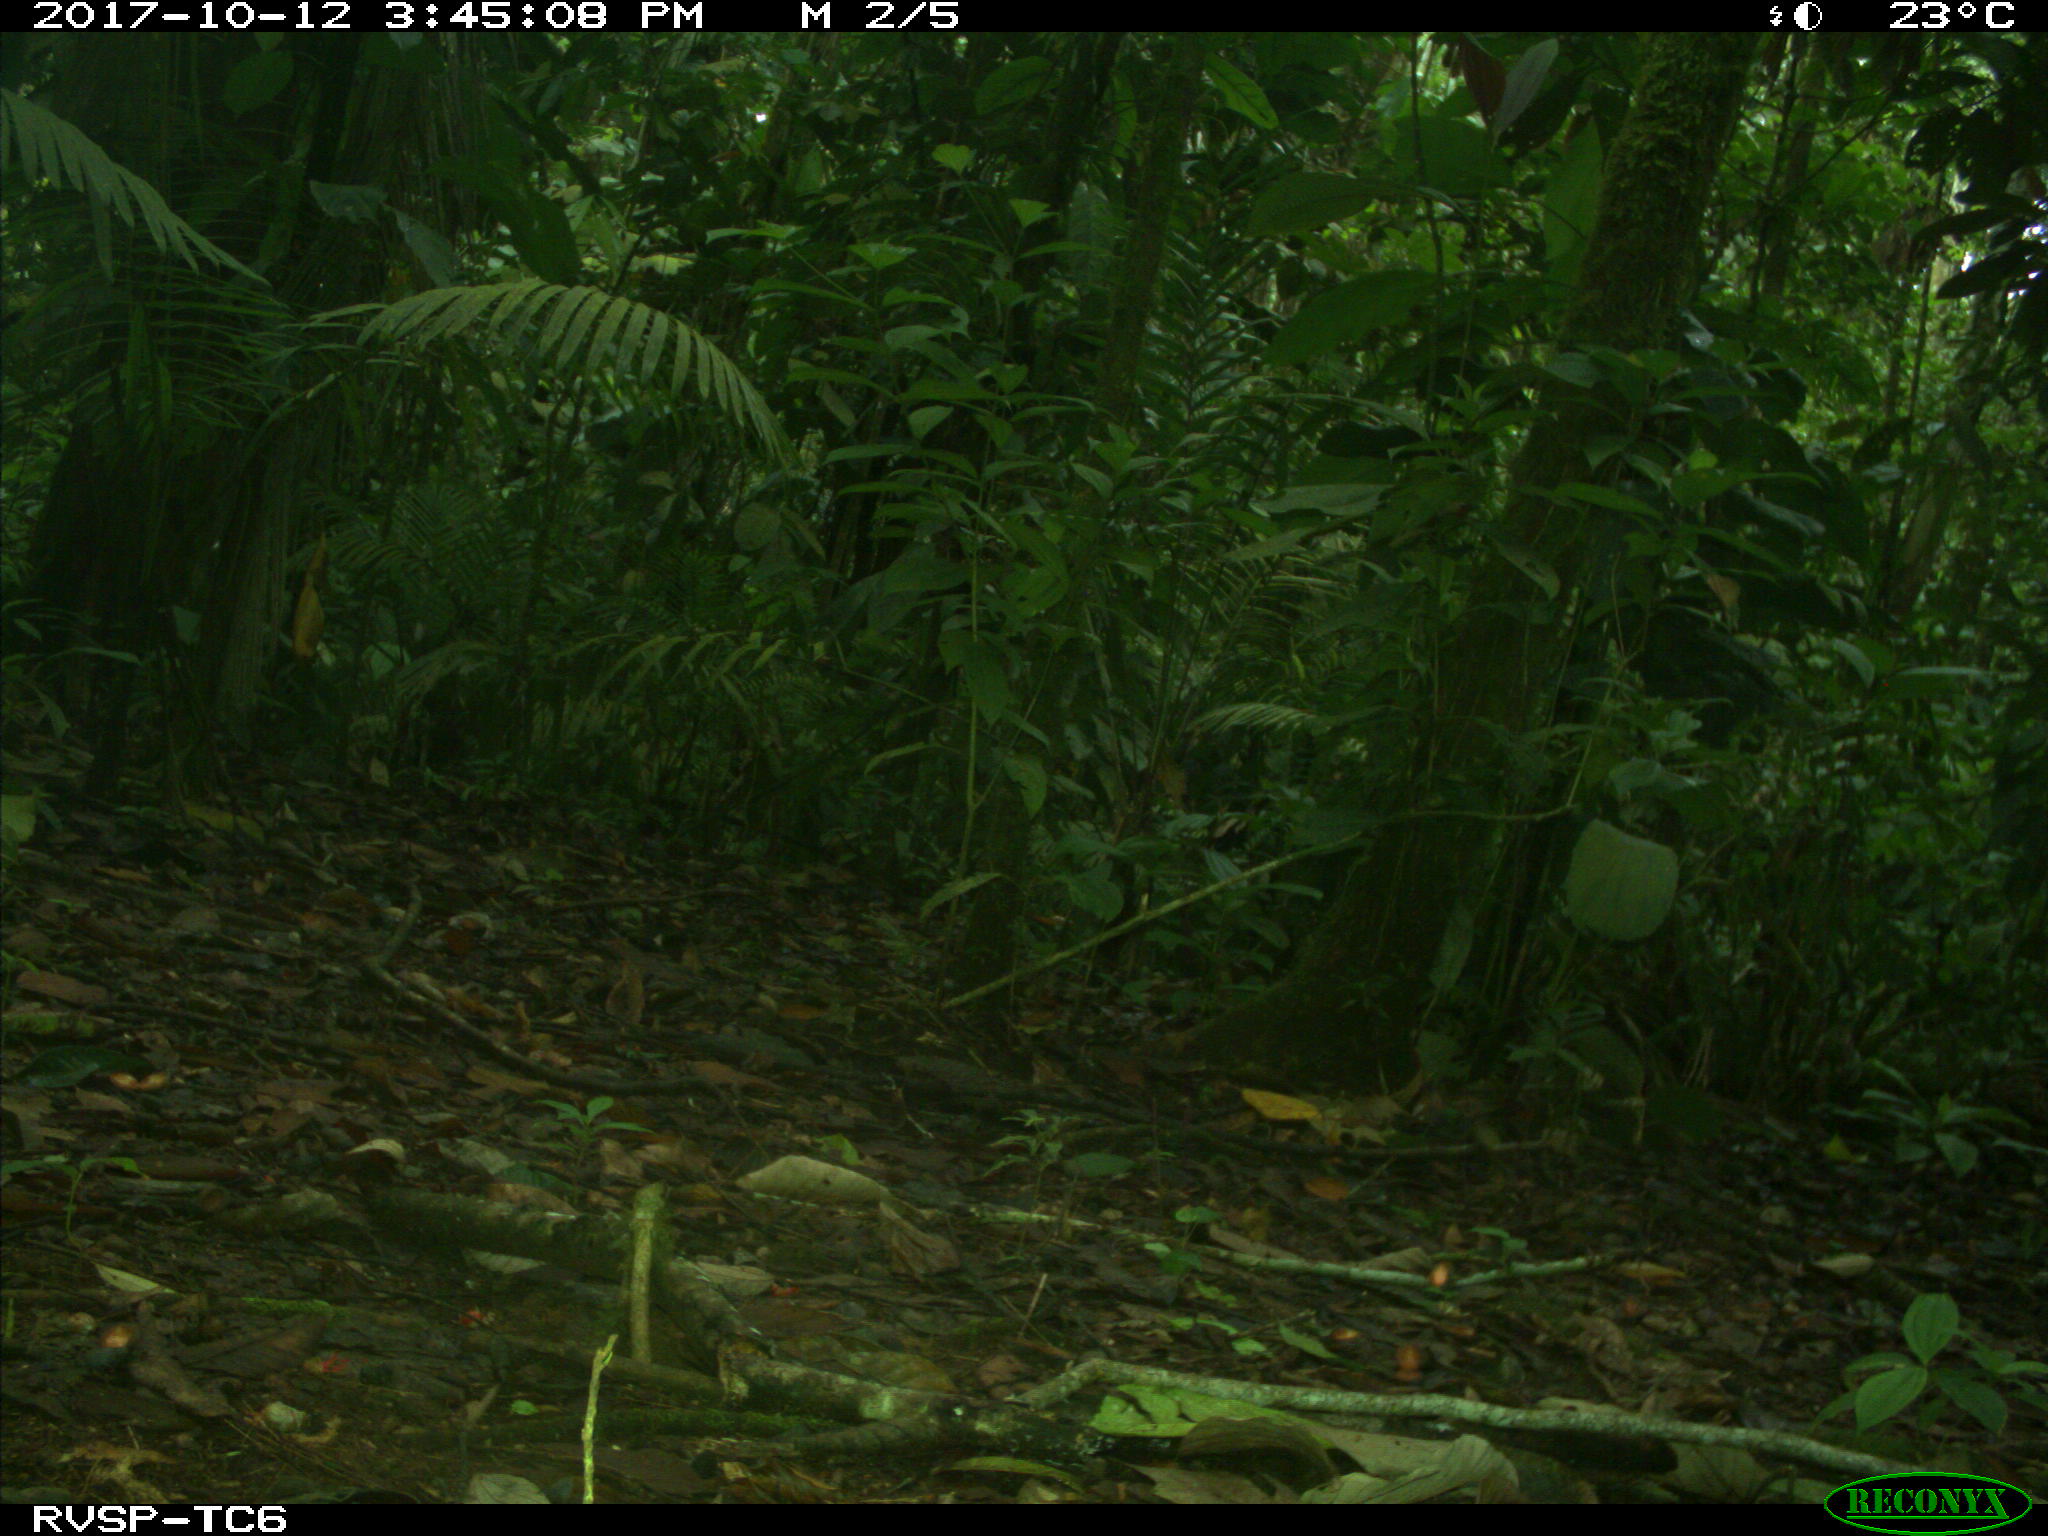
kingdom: Animalia
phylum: Chordata
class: Mammalia
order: Rodentia
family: Dasyproctidae
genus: Dasyprocta
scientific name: Dasyprocta punctata
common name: Central american agouti
